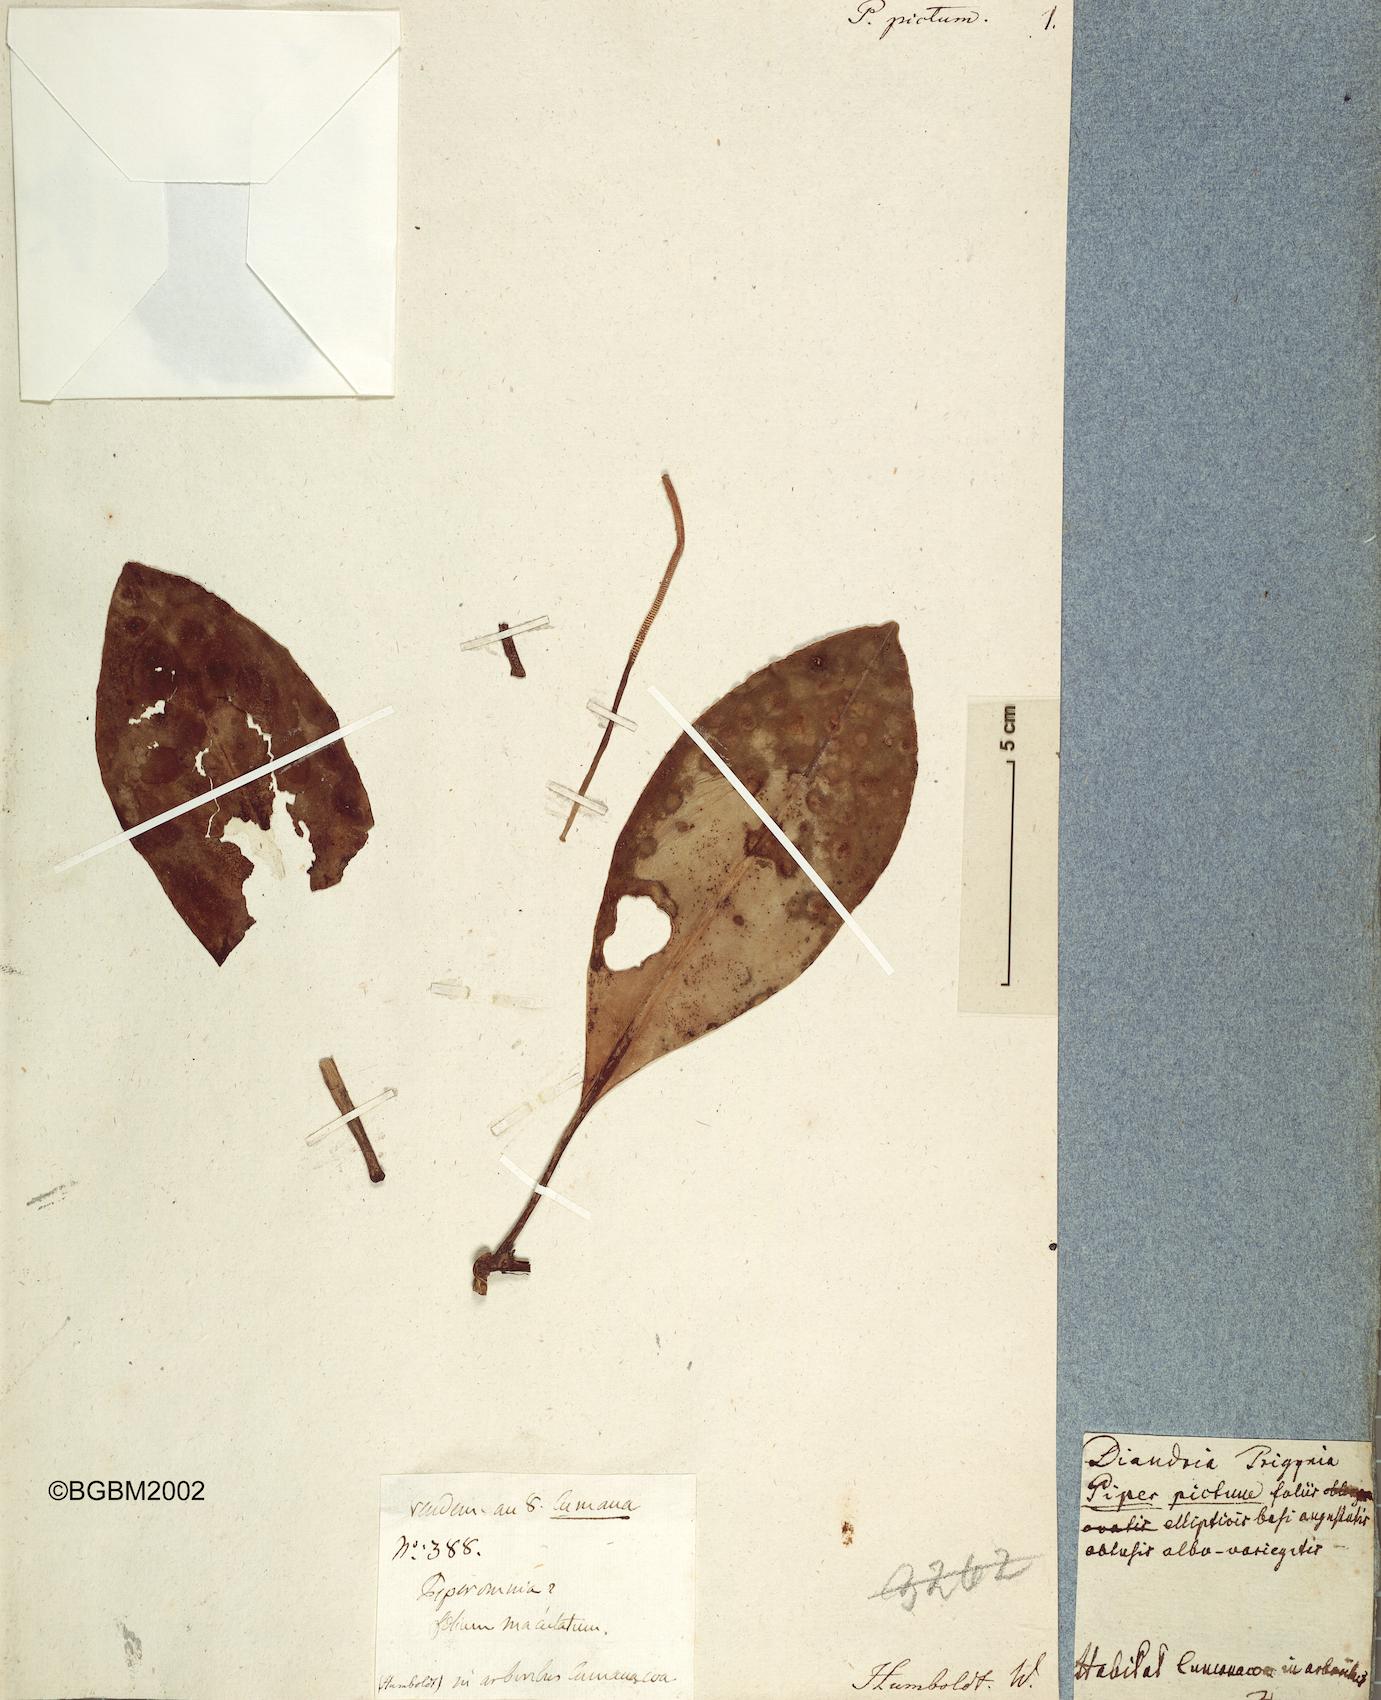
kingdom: Plantae
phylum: Tracheophyta
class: Magnoliopsida
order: Piperales
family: Piperaceae
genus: Piper
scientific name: Piper
